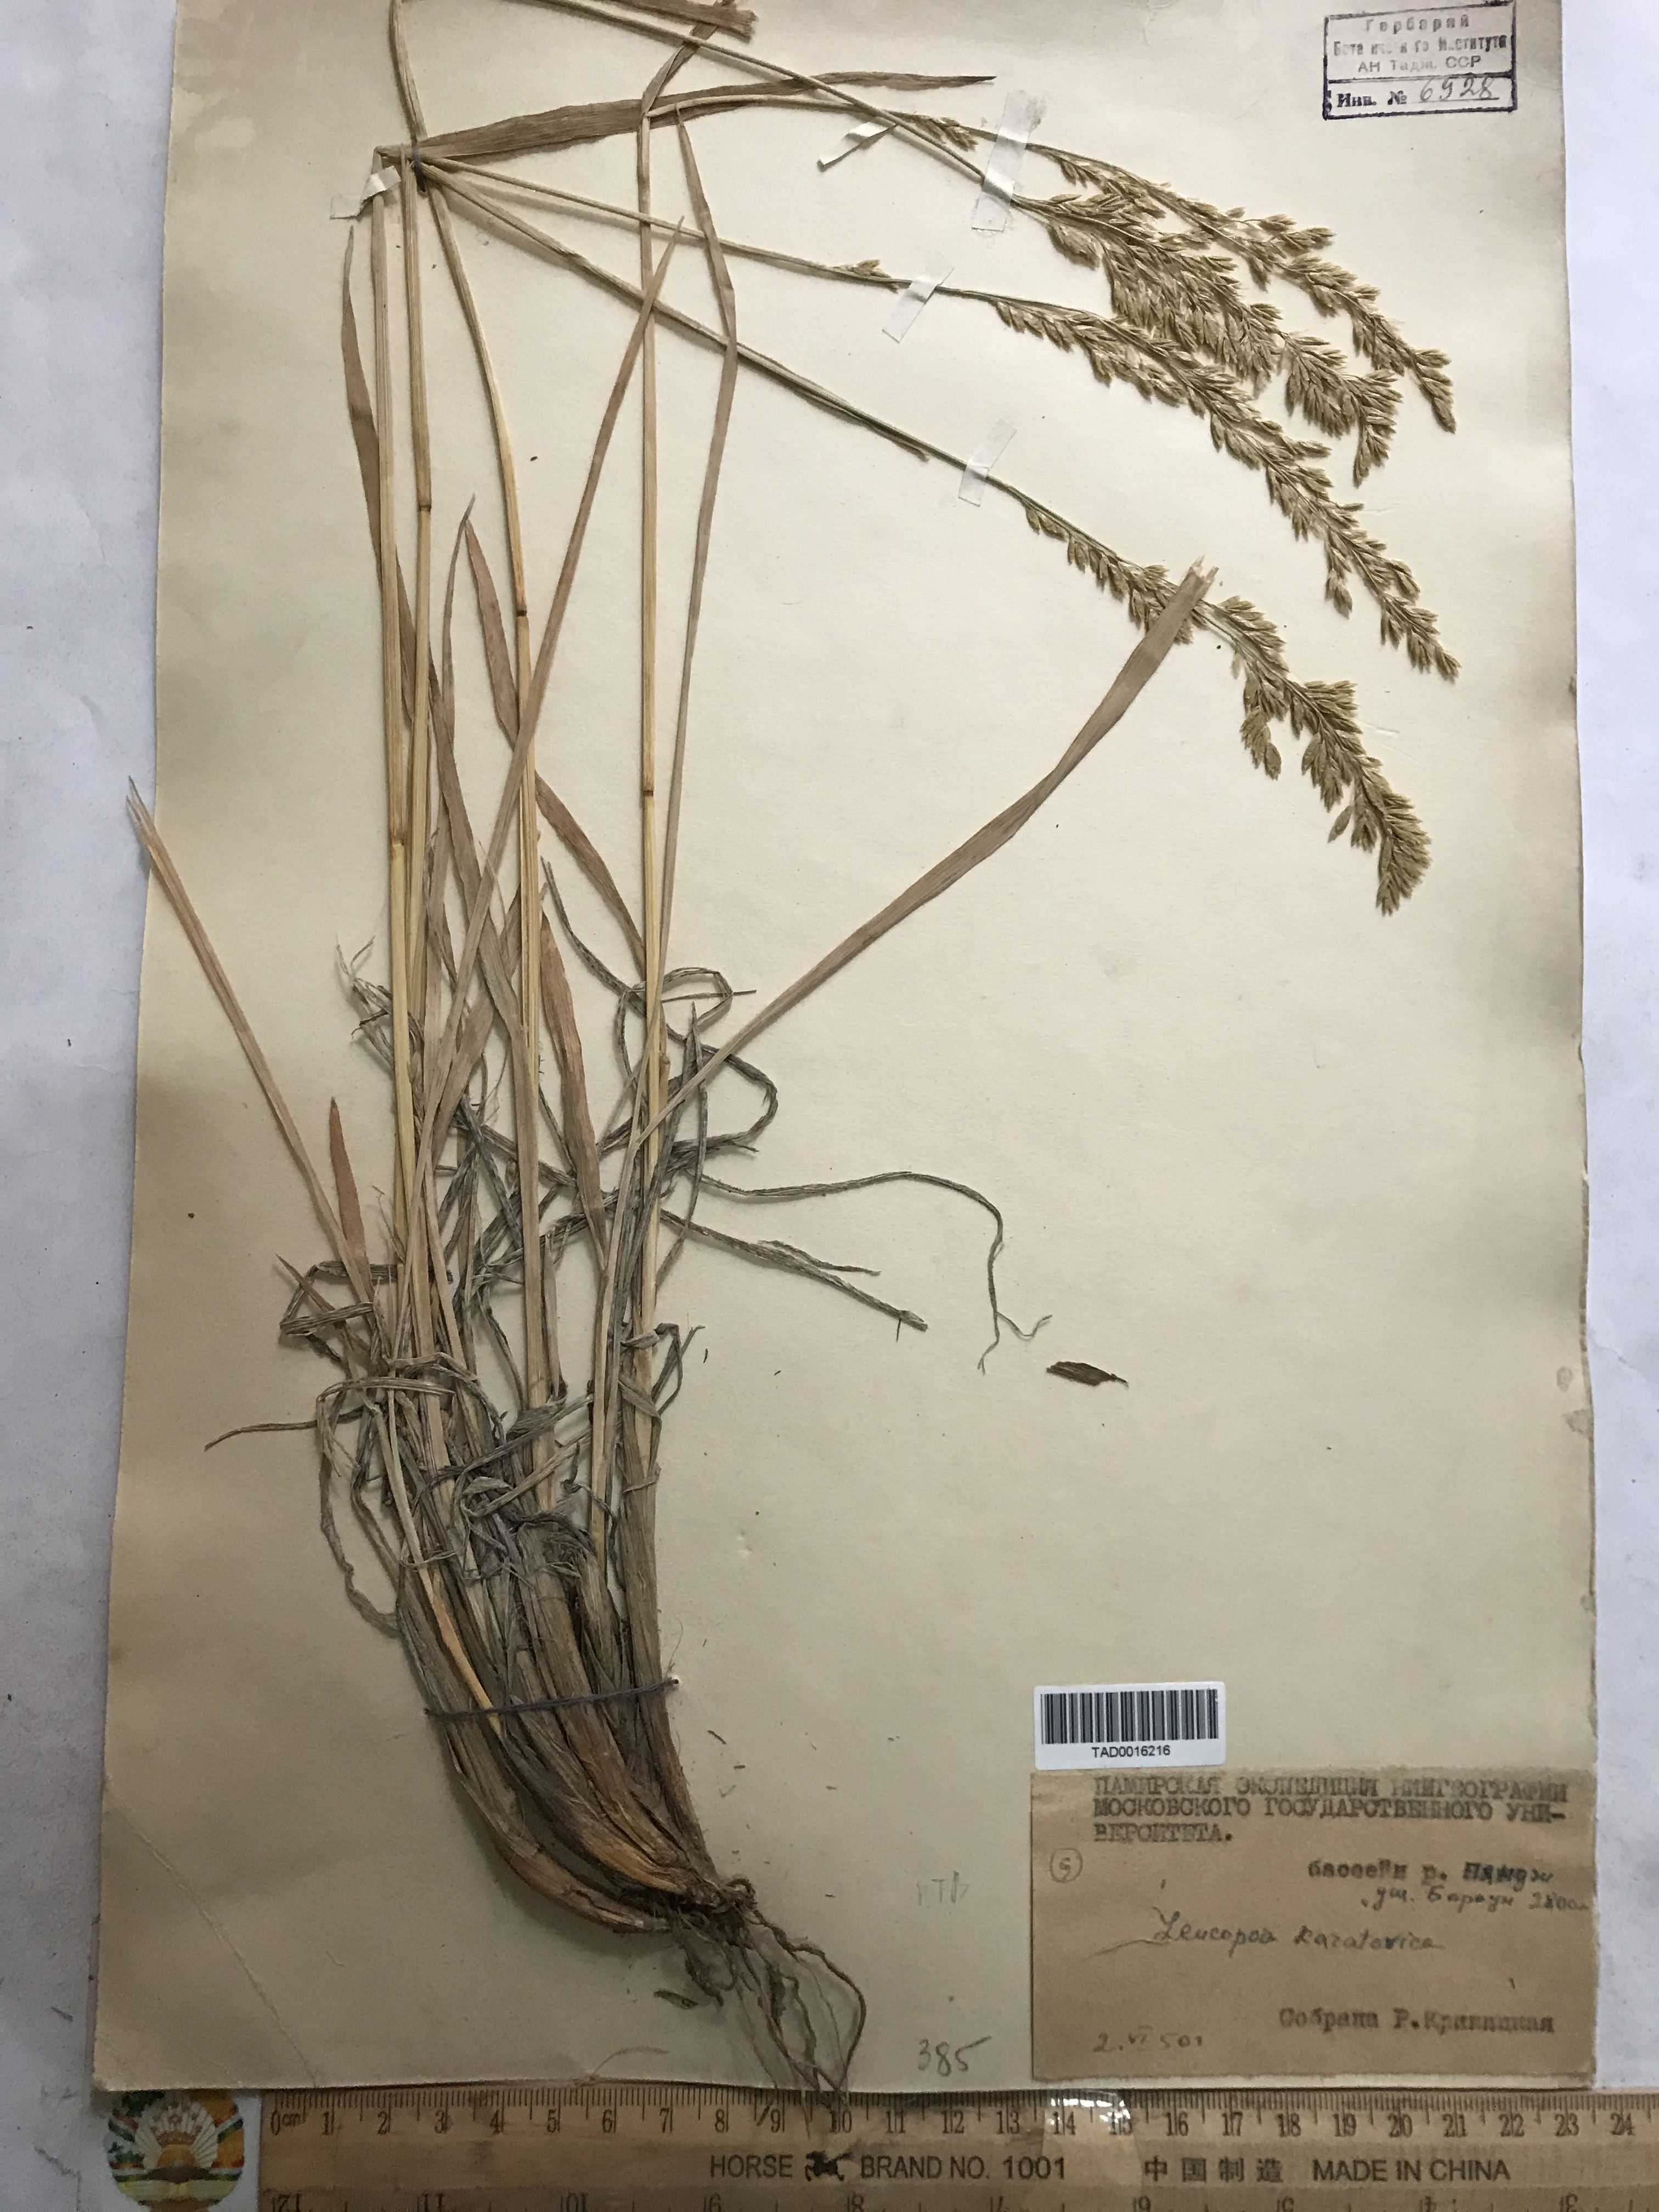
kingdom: Plantae
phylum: Tracheophyta
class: Liliopsida
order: Poales
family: Poaceae
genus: Festuca
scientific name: Festuca karatavica
